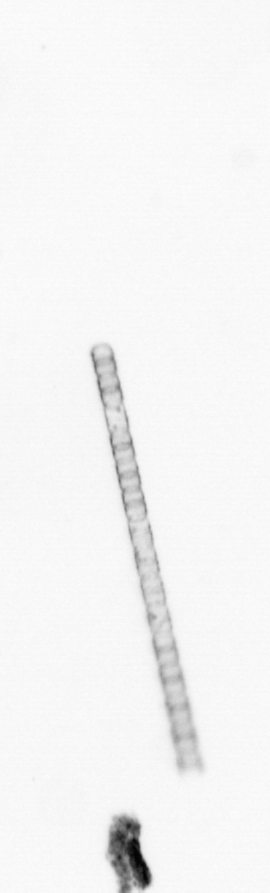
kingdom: Chromista
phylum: Ochrophyta
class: Bacillariophyceae
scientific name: Bacillariophyceae
